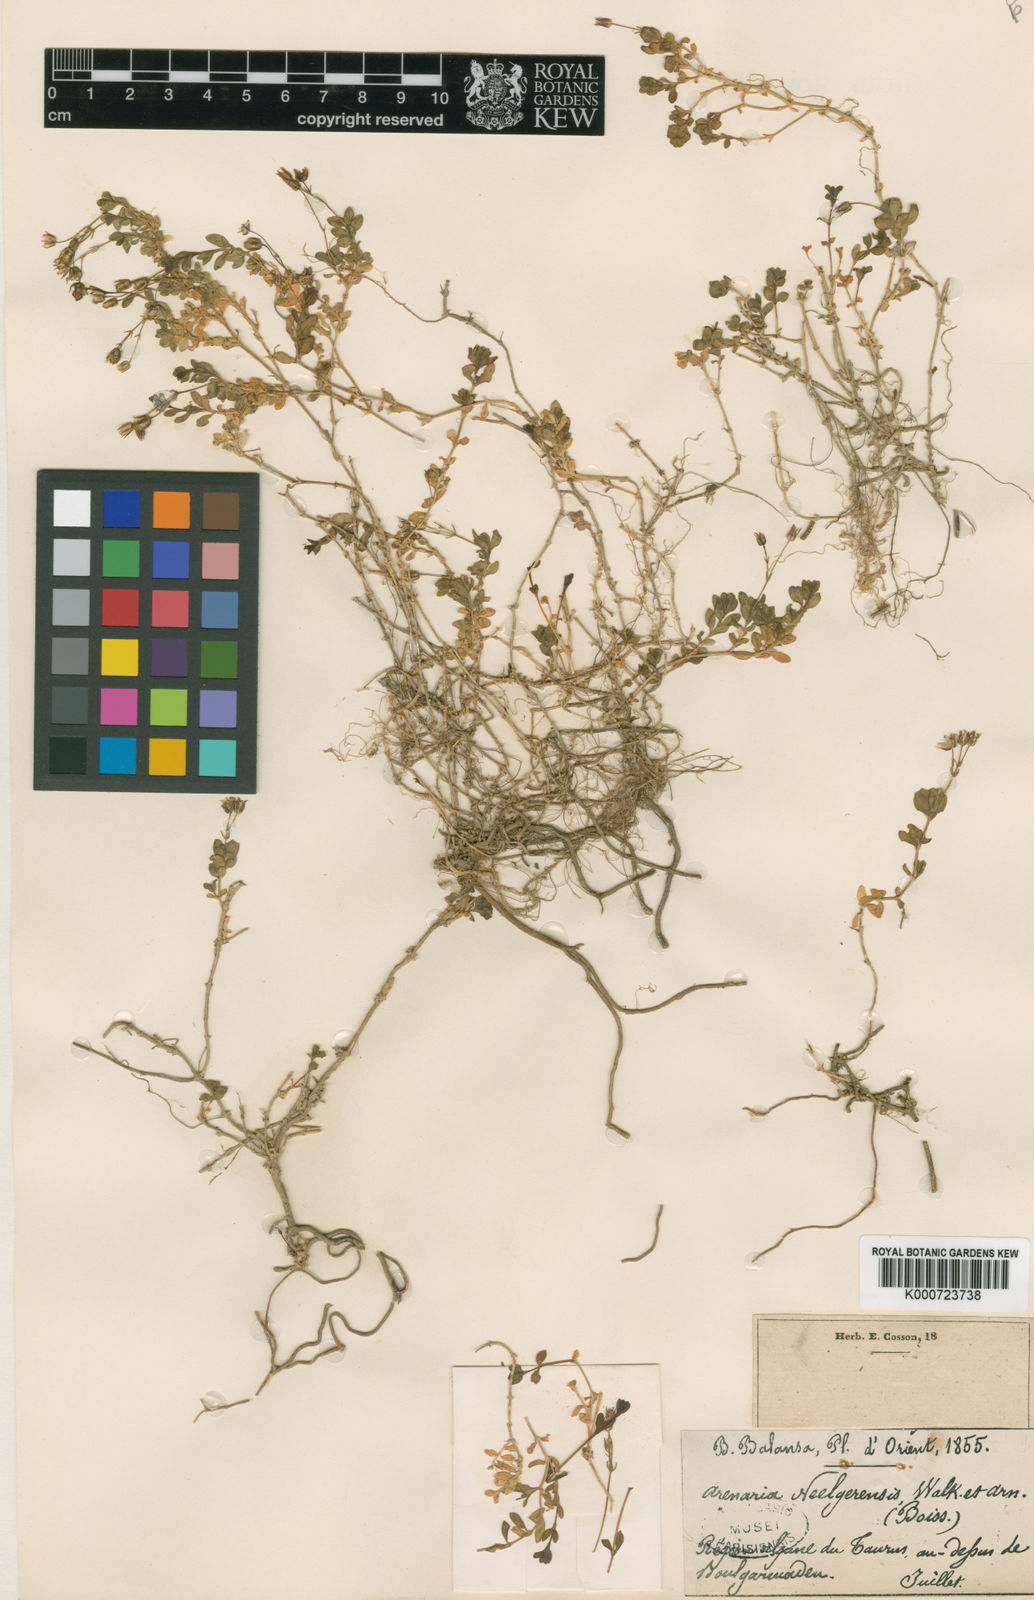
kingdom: Plantae
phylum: Tracheophyta
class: Magnoliopsida
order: Caryophyllales
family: Caryophyllaceae
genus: Arenaria
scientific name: Arenaria balansae
